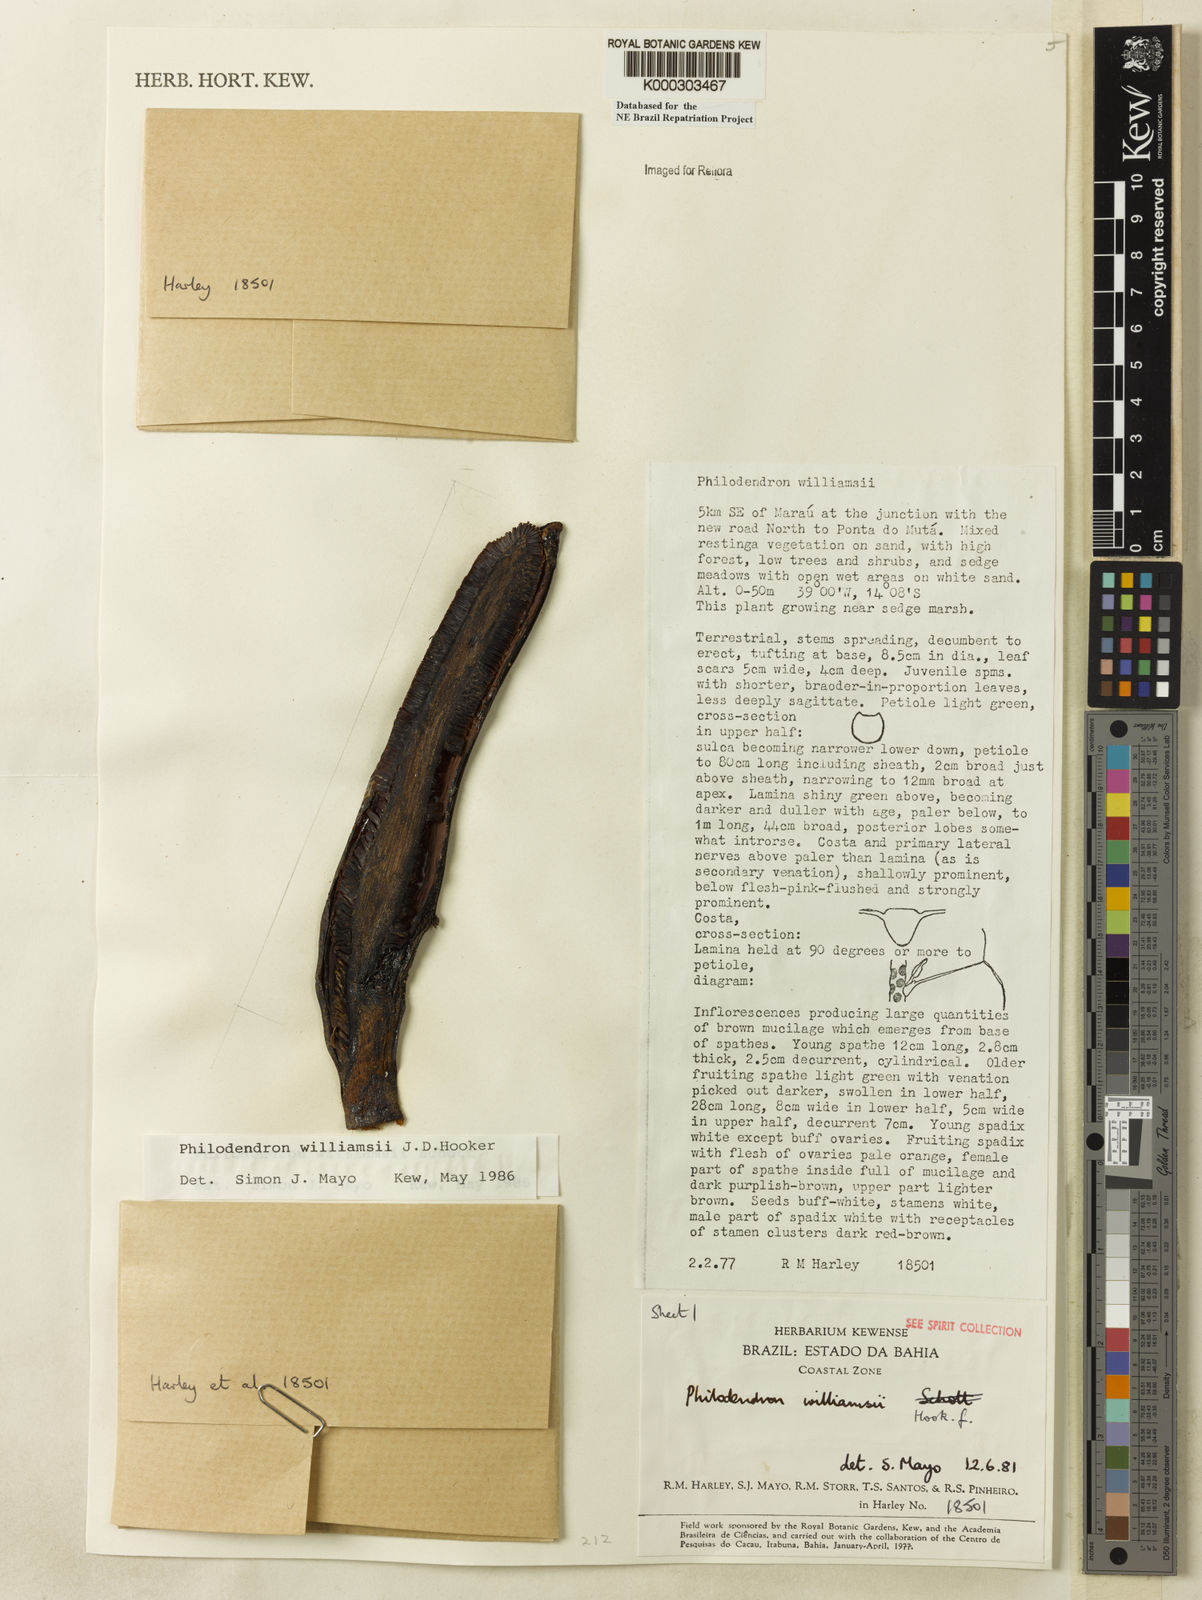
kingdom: Plantae
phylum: Tracheophyta
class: Liliopsida
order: Alismatales
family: Araceae
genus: Thaumatophyllum
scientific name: Thaumatophyllum williamsii
